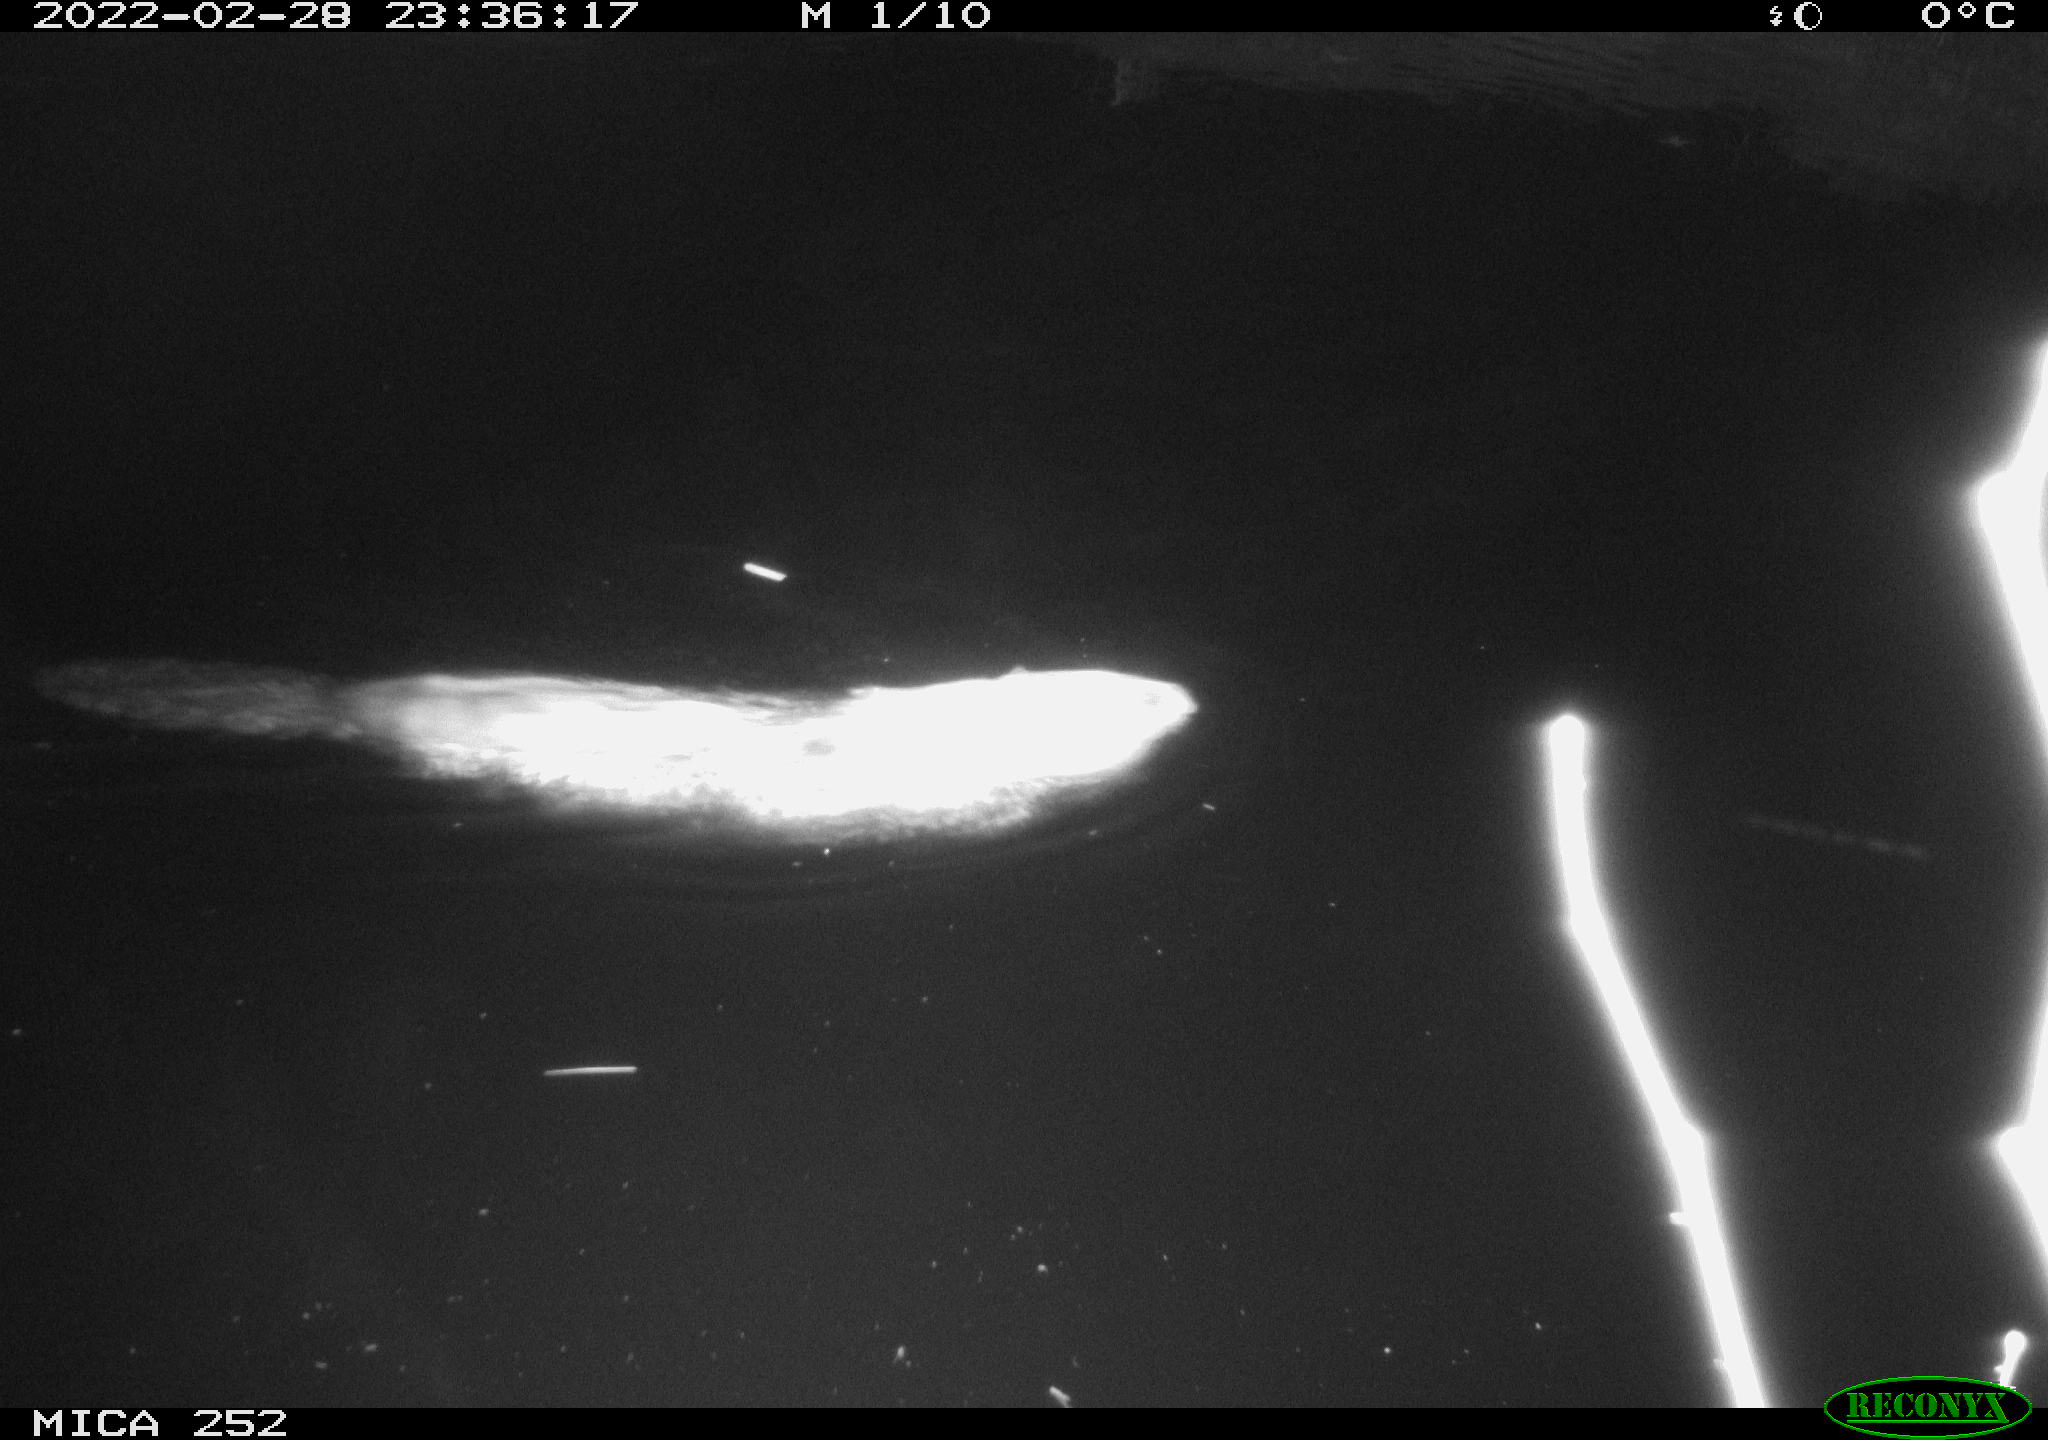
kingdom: Animalia
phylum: Chordata
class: Mammalia
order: Rodentia
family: Castoridae
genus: Castor
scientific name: Castor fiber
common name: Eurasian beaver
